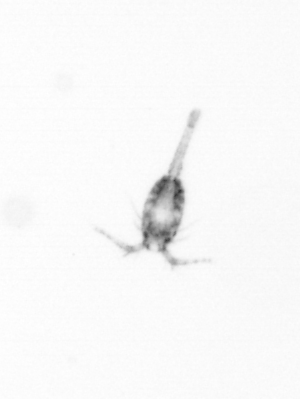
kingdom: Animalia
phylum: Arthropoda
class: Copepoda
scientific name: Copepoda
